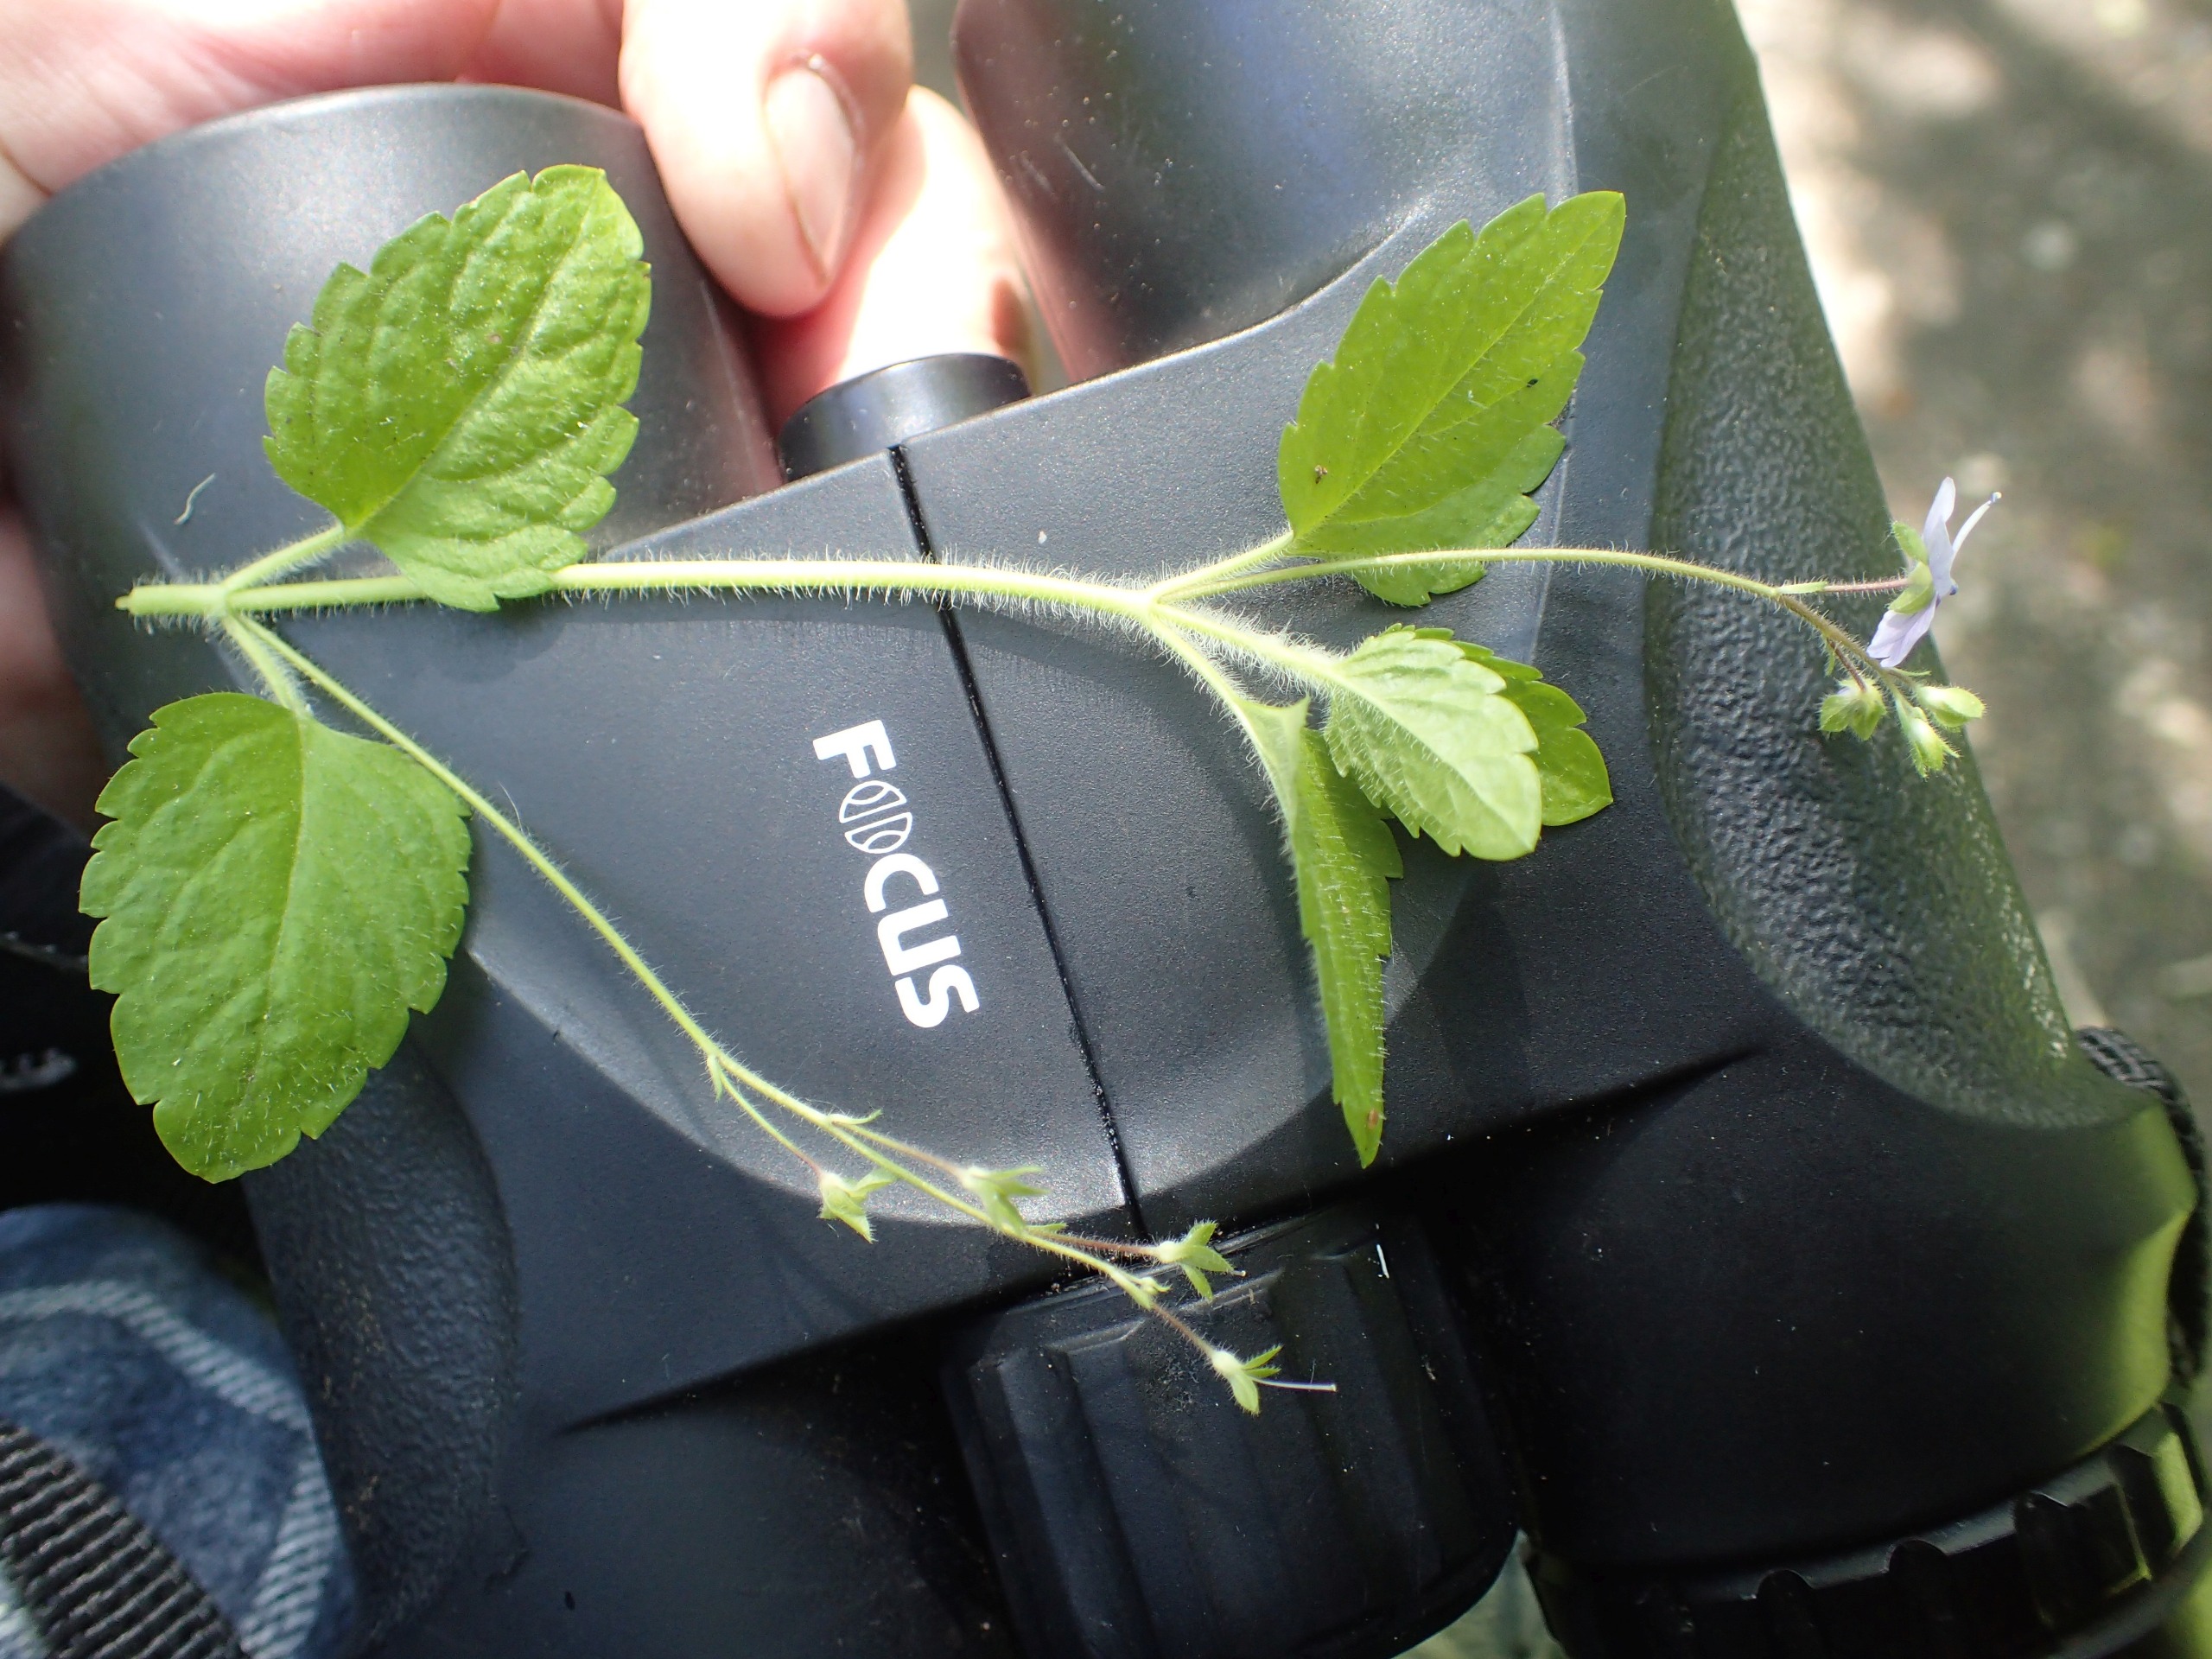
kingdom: Plantae
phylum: Tracheophyta
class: Magnoliopsida
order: Lamiales
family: Plantaginaceae
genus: Veronica
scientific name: Veronica montana
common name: Bjerg-ærenpris
